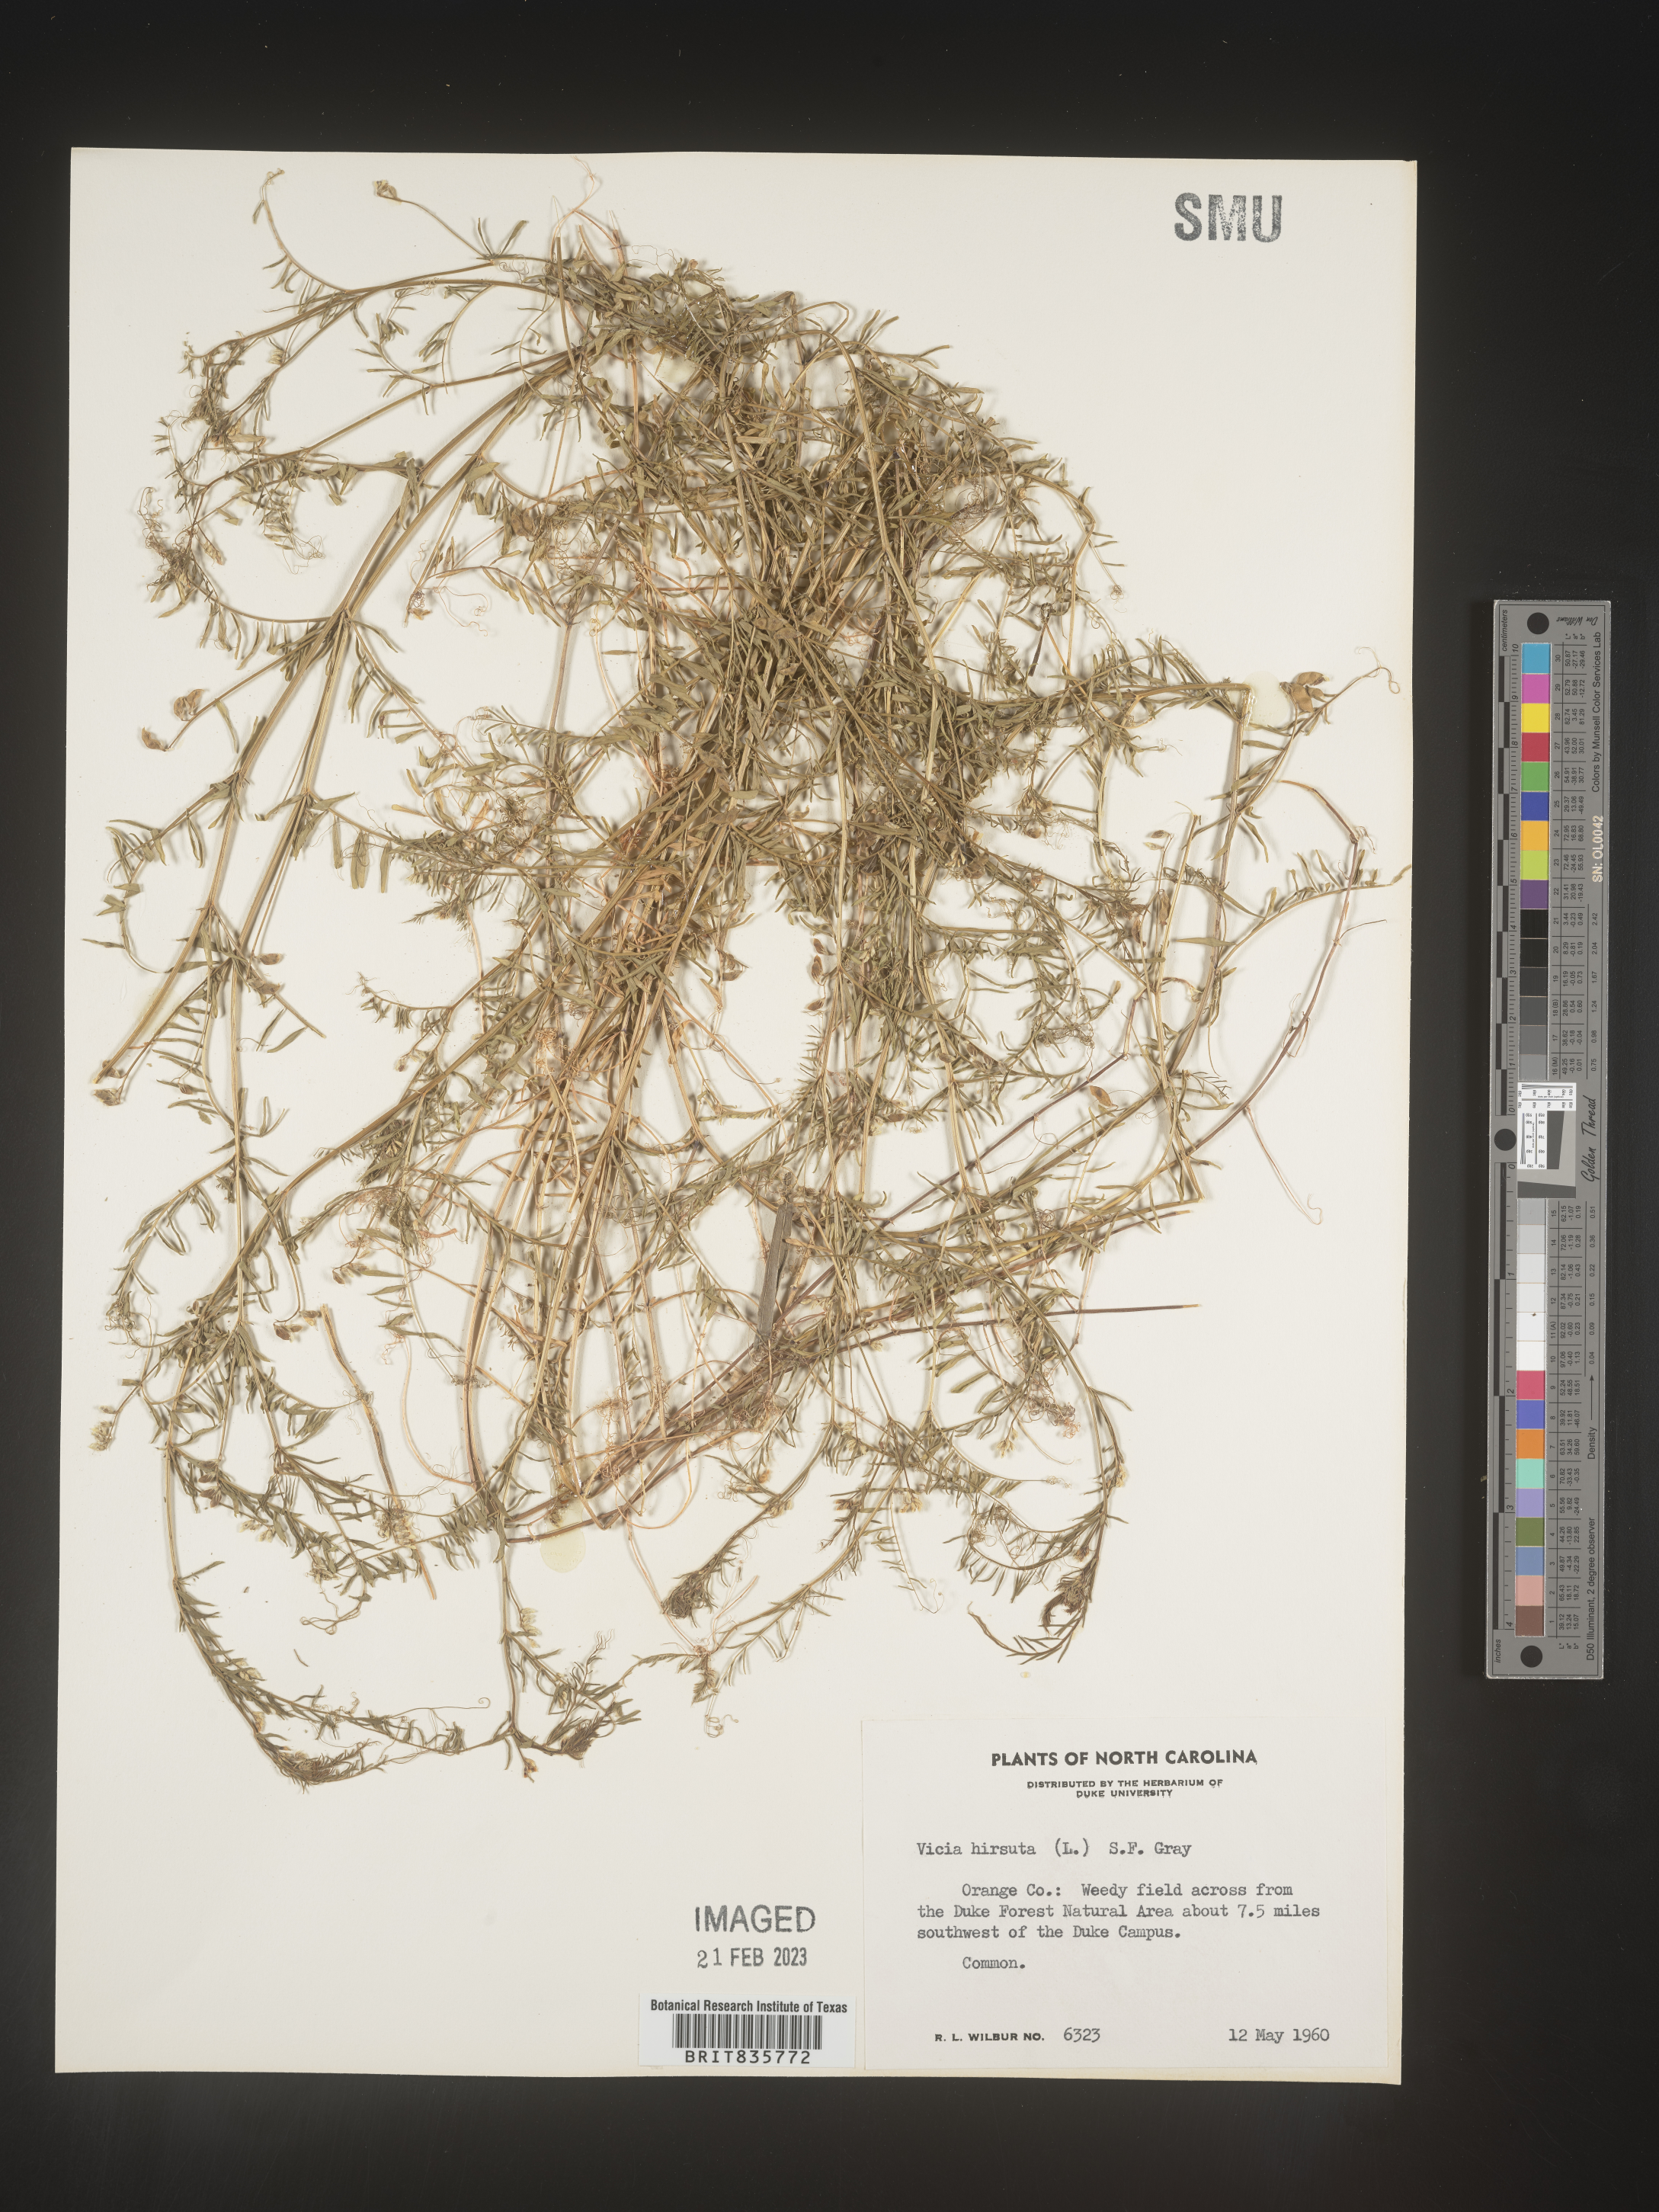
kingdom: Plantae
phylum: Tracheophyta
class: Magnoliopsida
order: Fabales
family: Fabaceae
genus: Vicia
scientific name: Vicia
